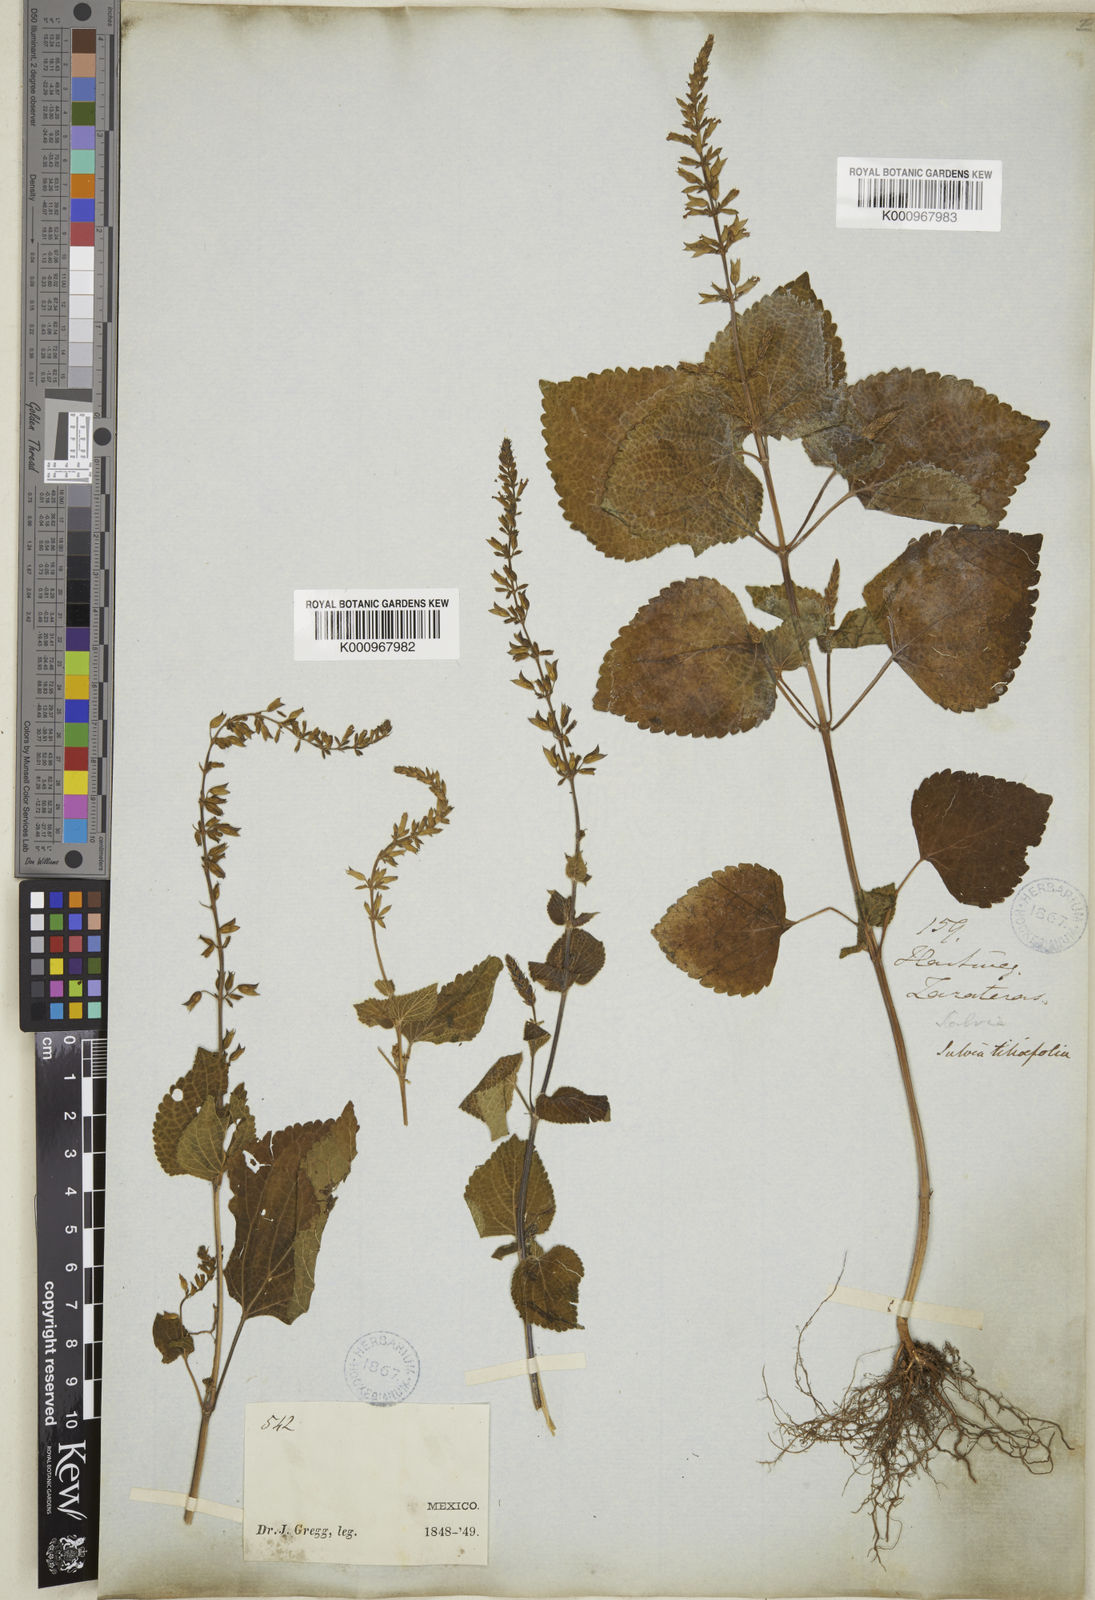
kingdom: Plantae
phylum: Tracheophyta
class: Magnoliopsida
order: Lamiales
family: Lamiaceae
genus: Salvia
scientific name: Salvia tiliifolia
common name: Lindenleaf sage
